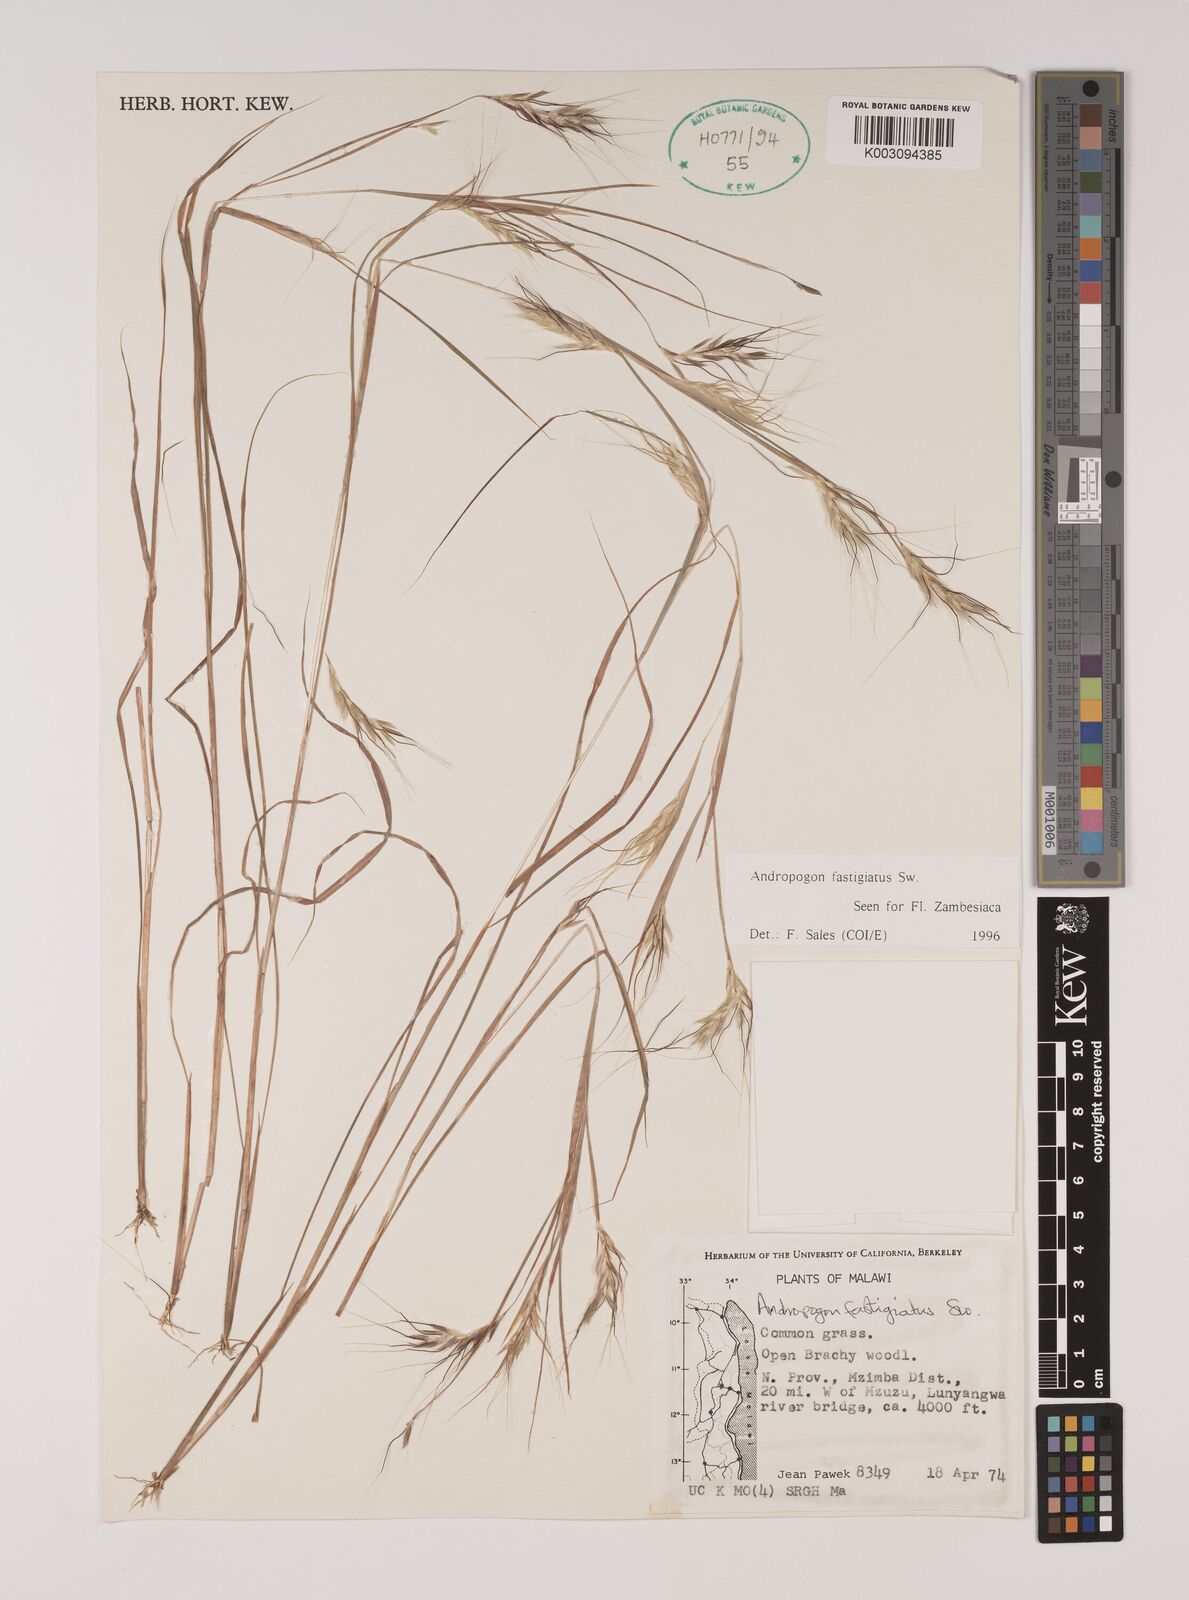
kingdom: Plantae
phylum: Tracheophyta
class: Liliopsida
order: Poales
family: Poaceae
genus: Andropogon
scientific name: Andropogon festuciformis
